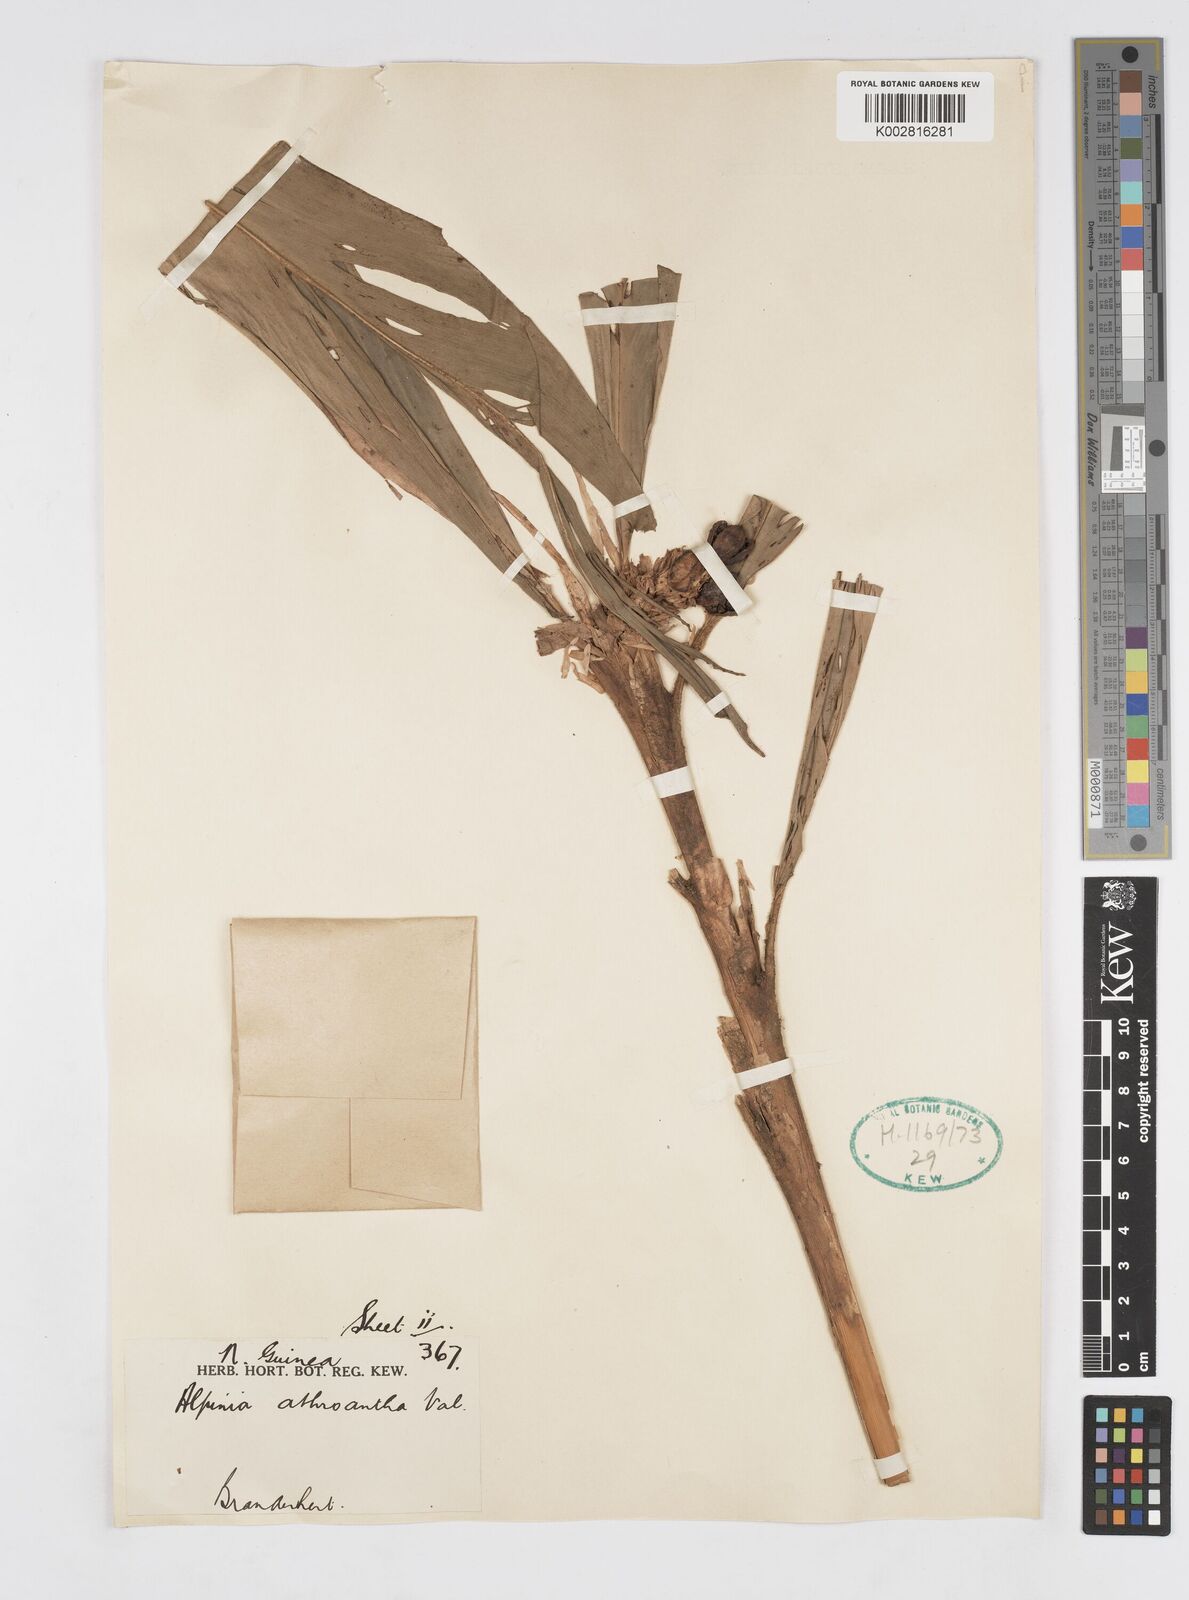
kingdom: Plantae
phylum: Tracheophyta
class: Liliopsida
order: Zingiberales
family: Zingiberaceae
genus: Alpinia
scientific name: Alpinia athroantha
